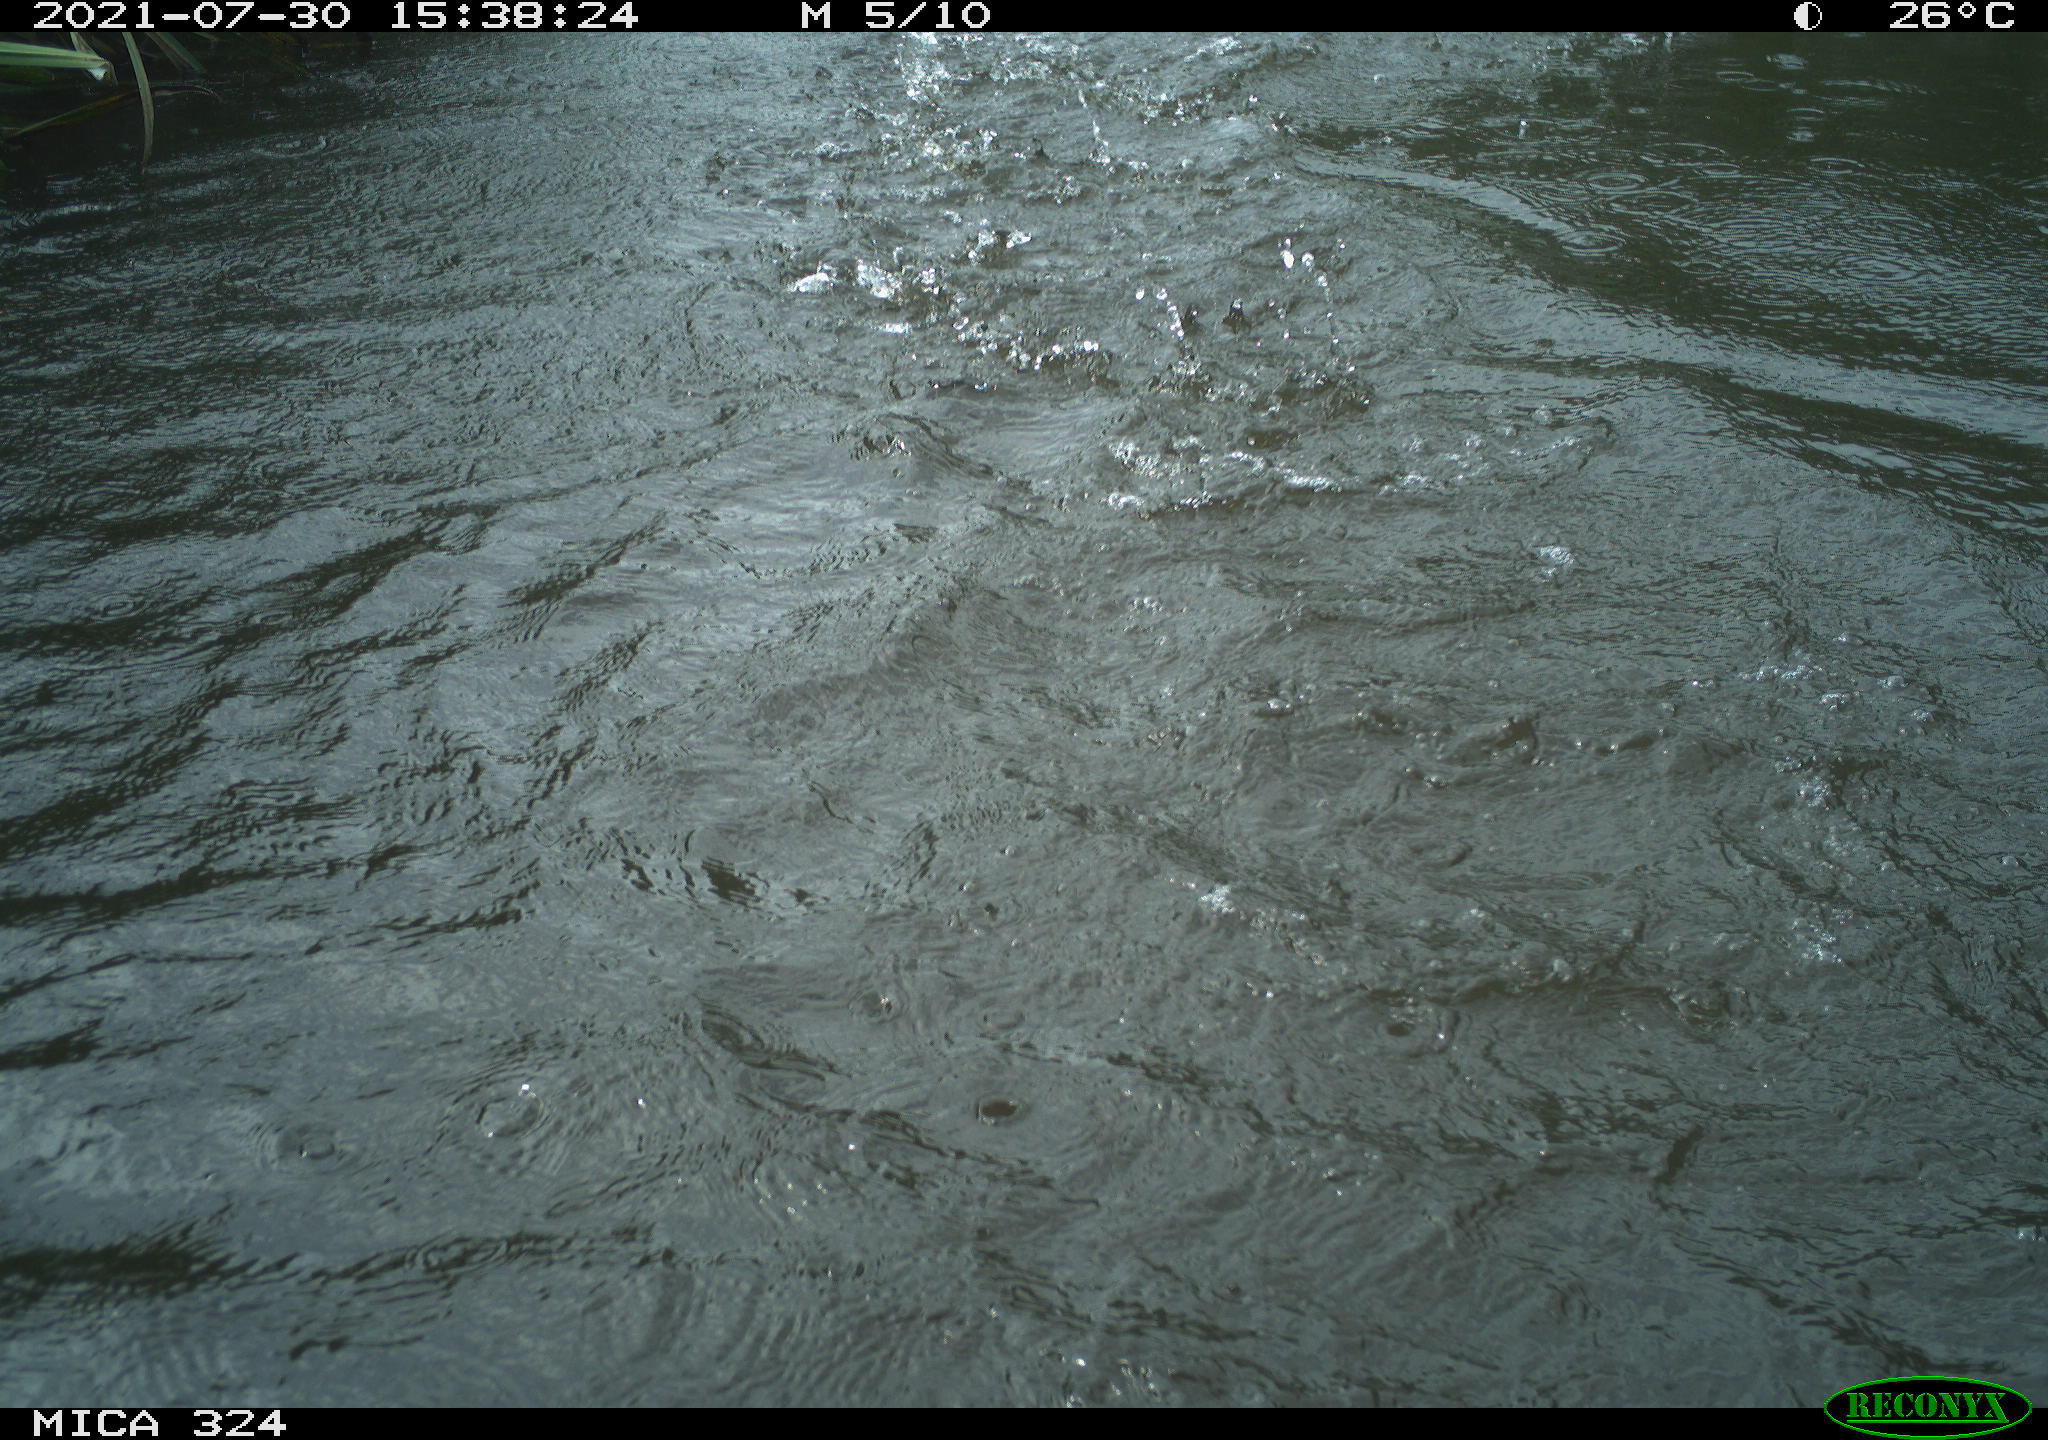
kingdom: Animalia
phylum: Chordata
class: Aves
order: Gruiformes
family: Rallidae
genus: Gallinula
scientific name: Gallinula chloropus
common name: Common moorhen
